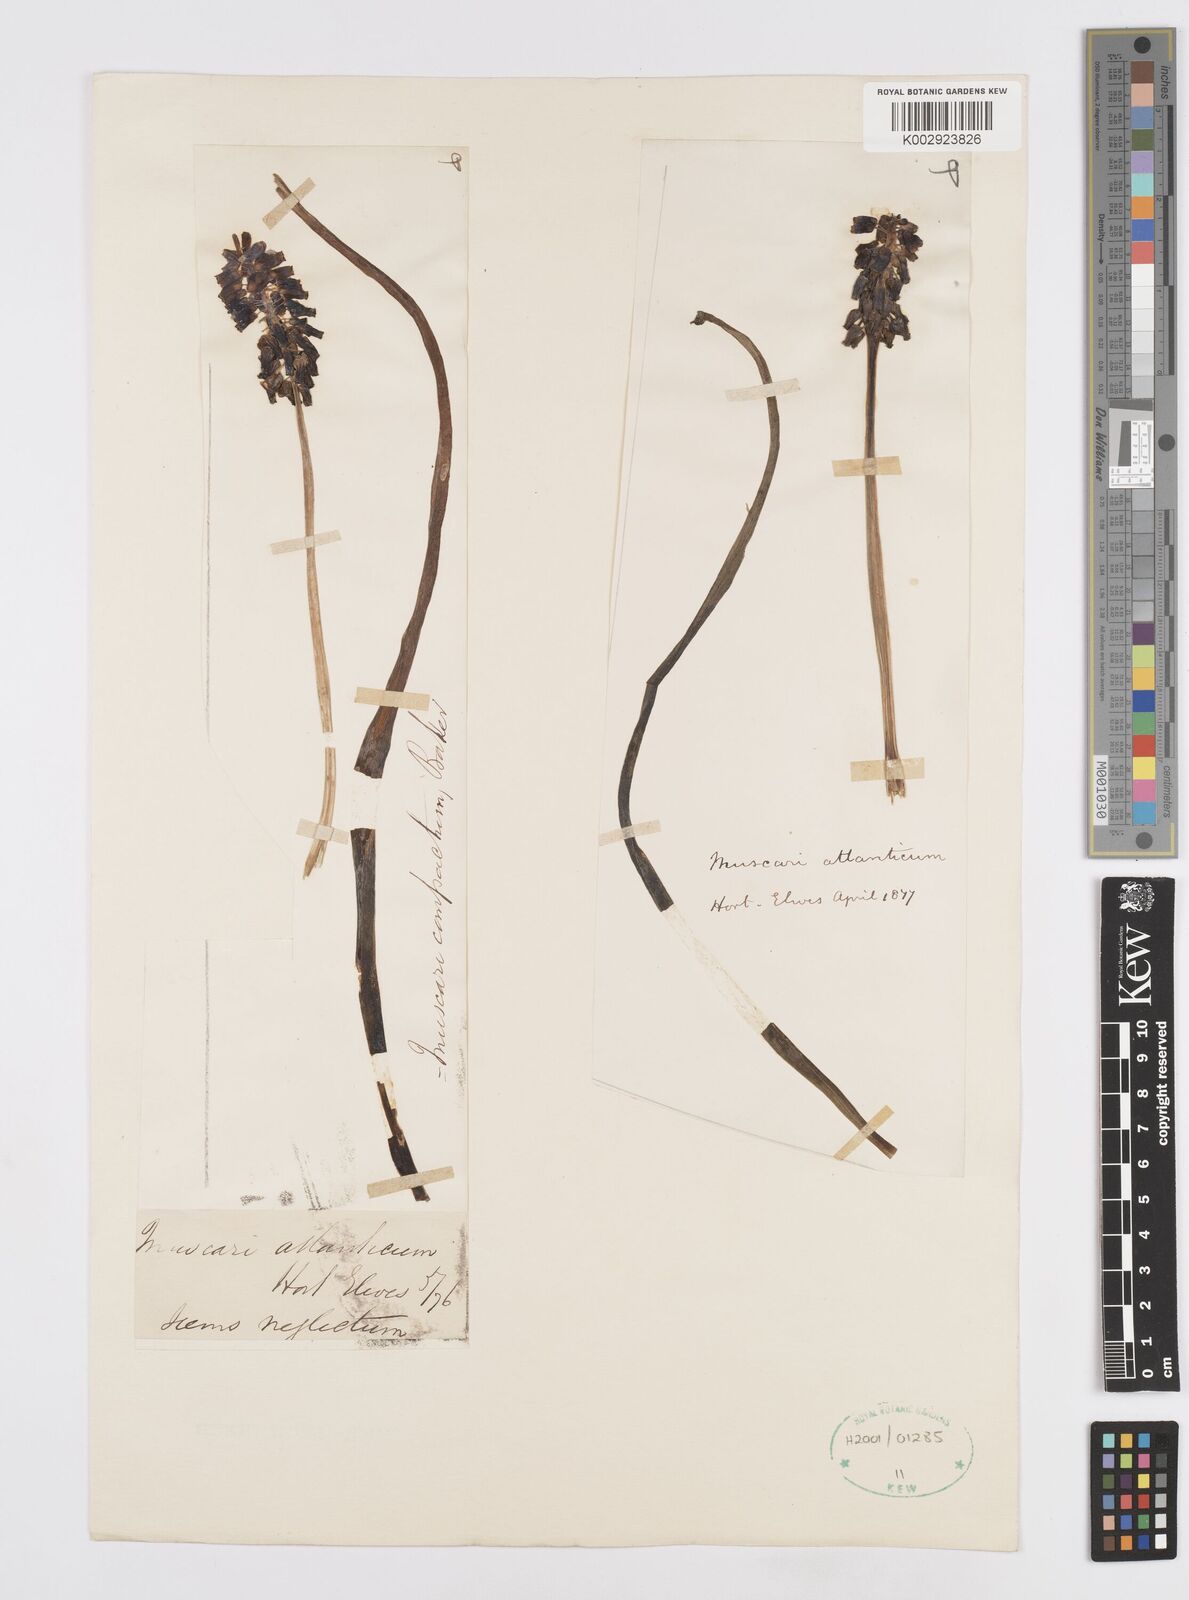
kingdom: Plantae
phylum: Tracheophyta
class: Liliopsida
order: Asparagales
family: Asparagaceae
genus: Muscari
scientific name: Muscari neglectum
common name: Grape-hyacinth
